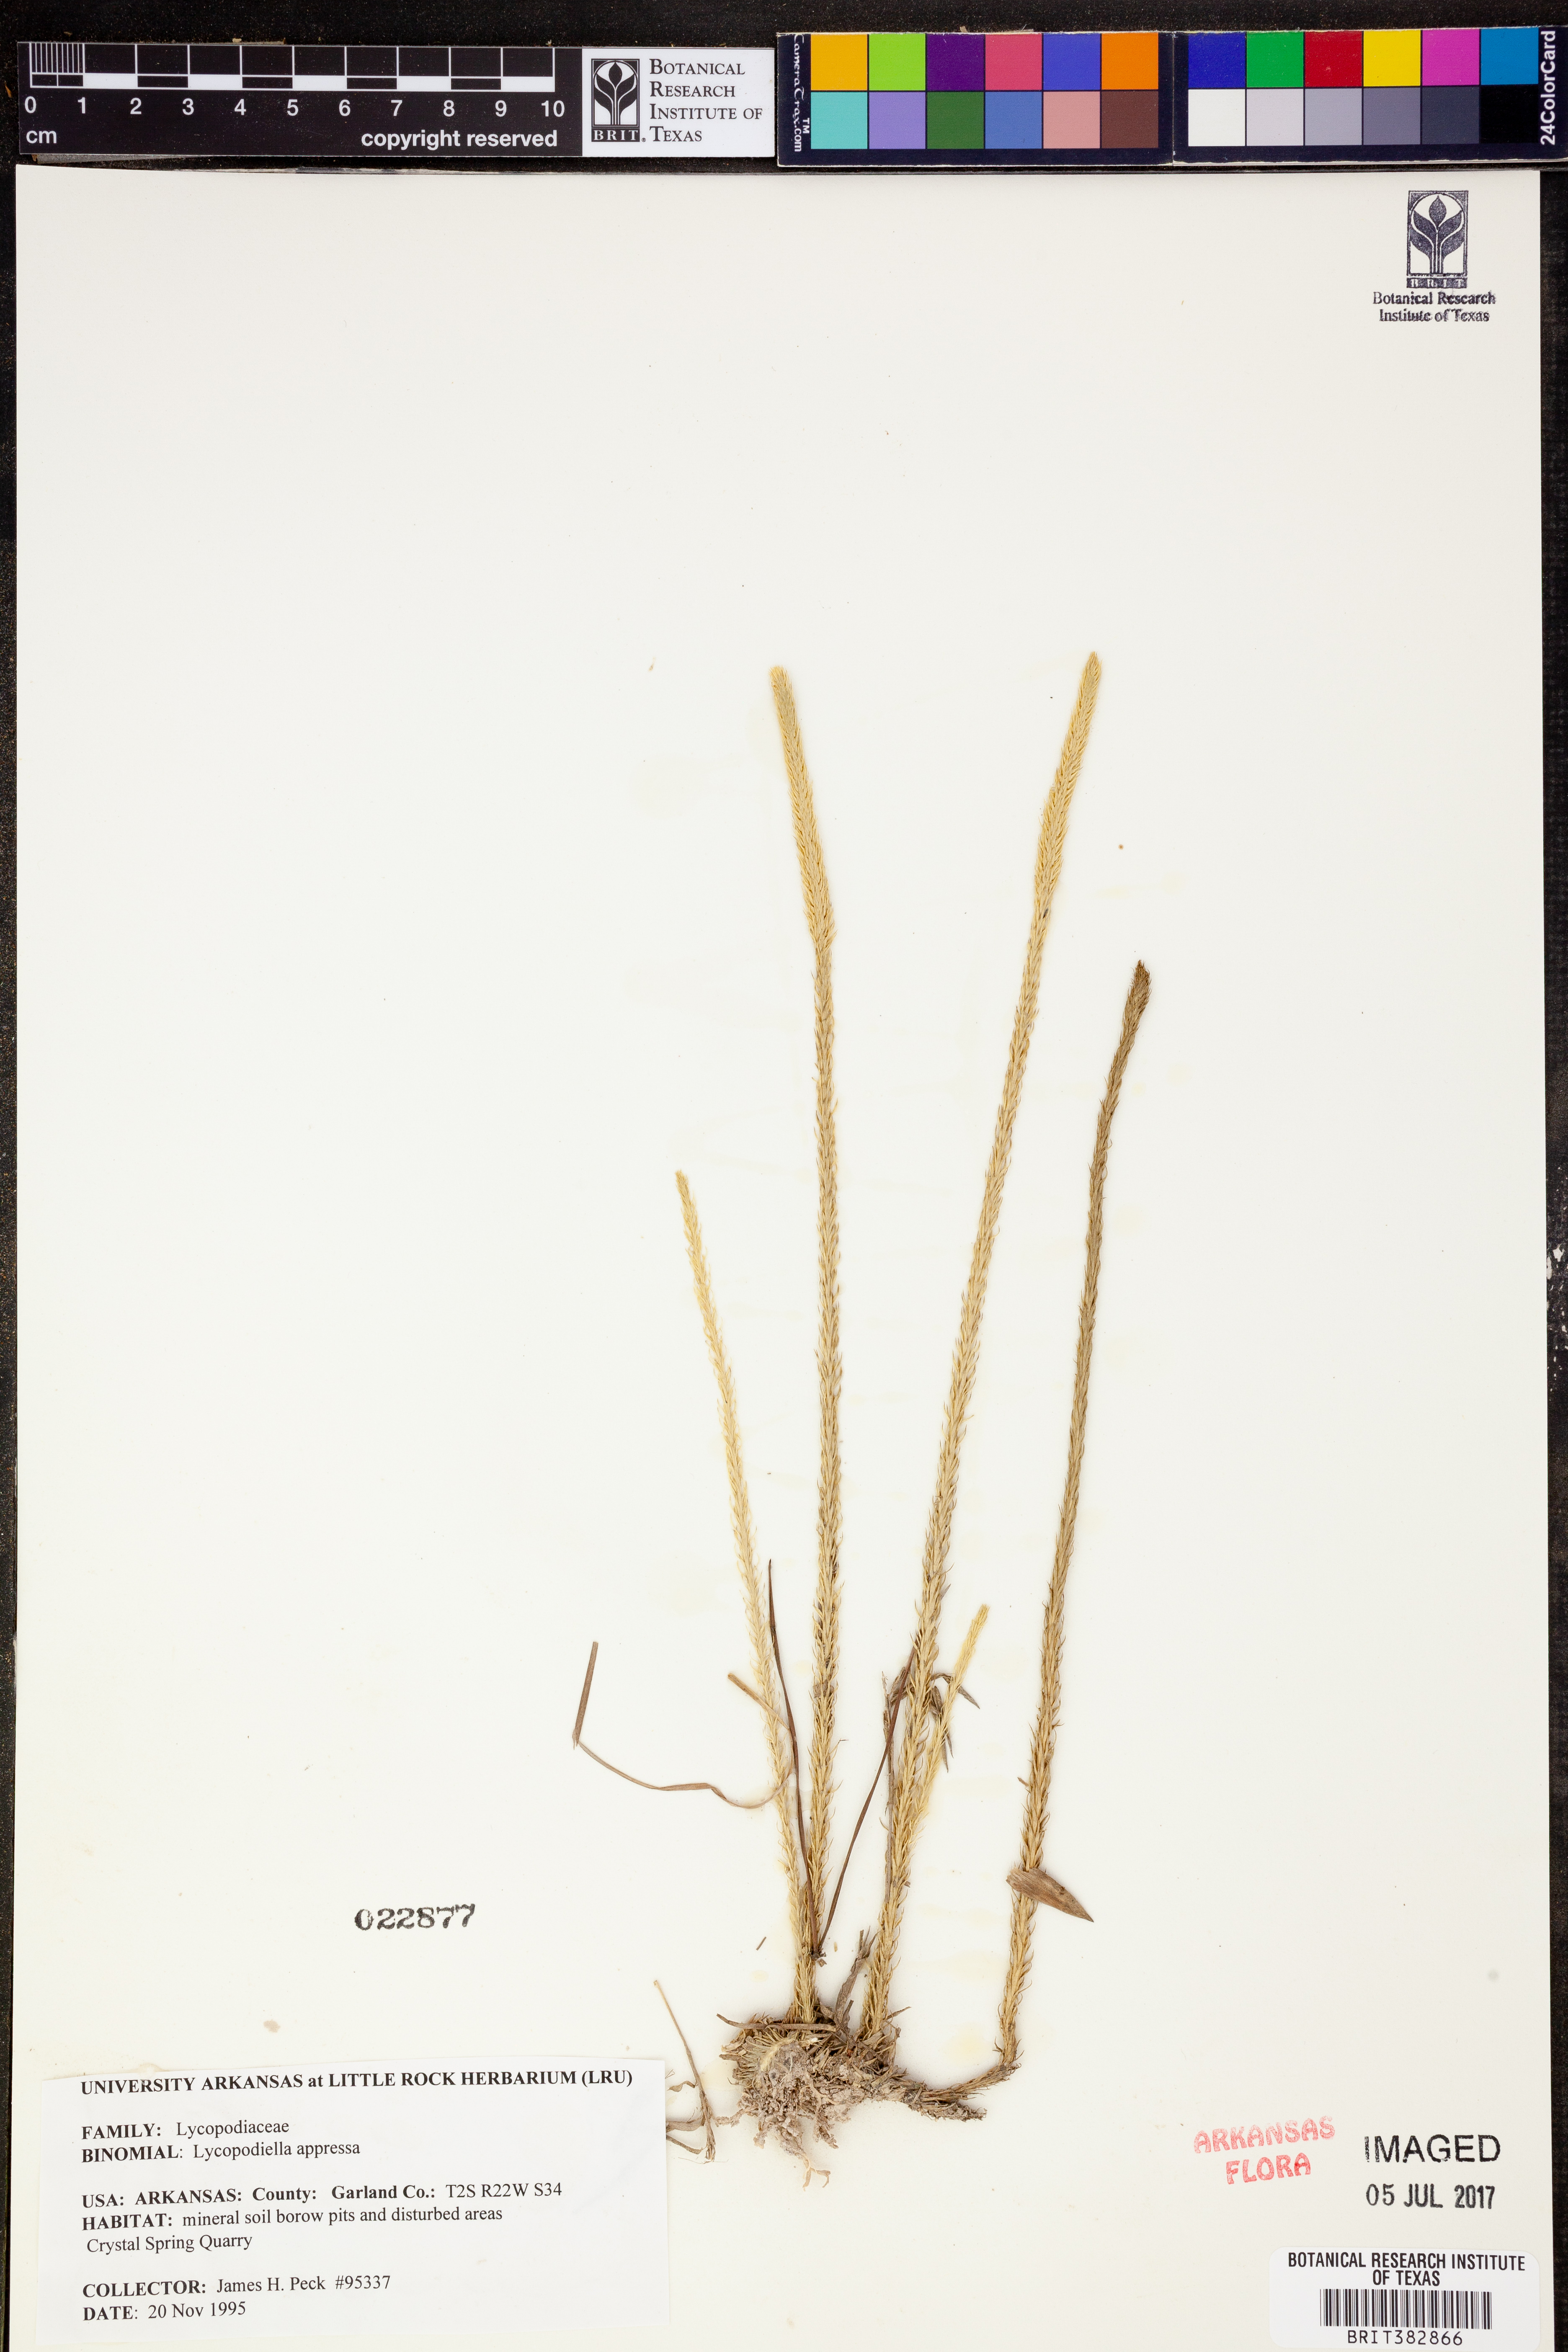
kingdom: Plantae
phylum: Tracheophyta
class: Lycopodiopsida
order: Lycopodiales
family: Lycopodiaceae
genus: Lycopodiella
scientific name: Lycopodiella appressa
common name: Appressed bog clubmoss
